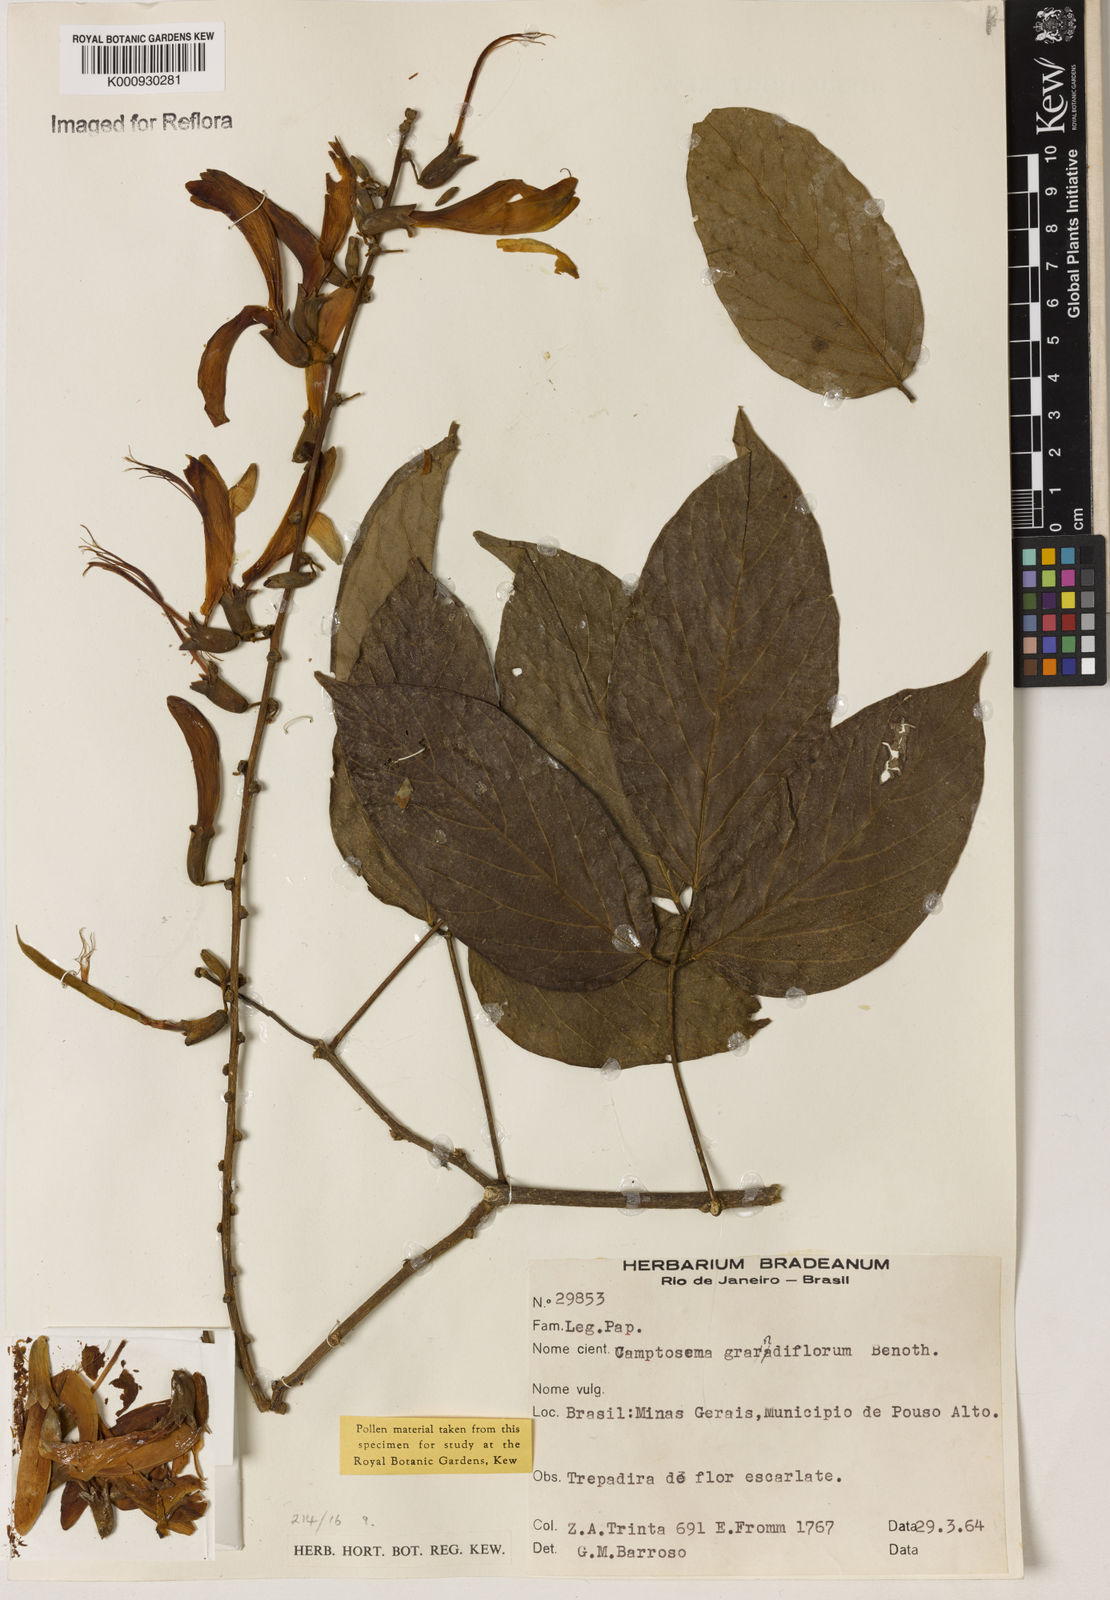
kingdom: Plantae
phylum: Tracheophyta
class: Magnoliopsida
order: Fabales
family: Fabaceae
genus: Camptosema
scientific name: Camptosema spectabile
